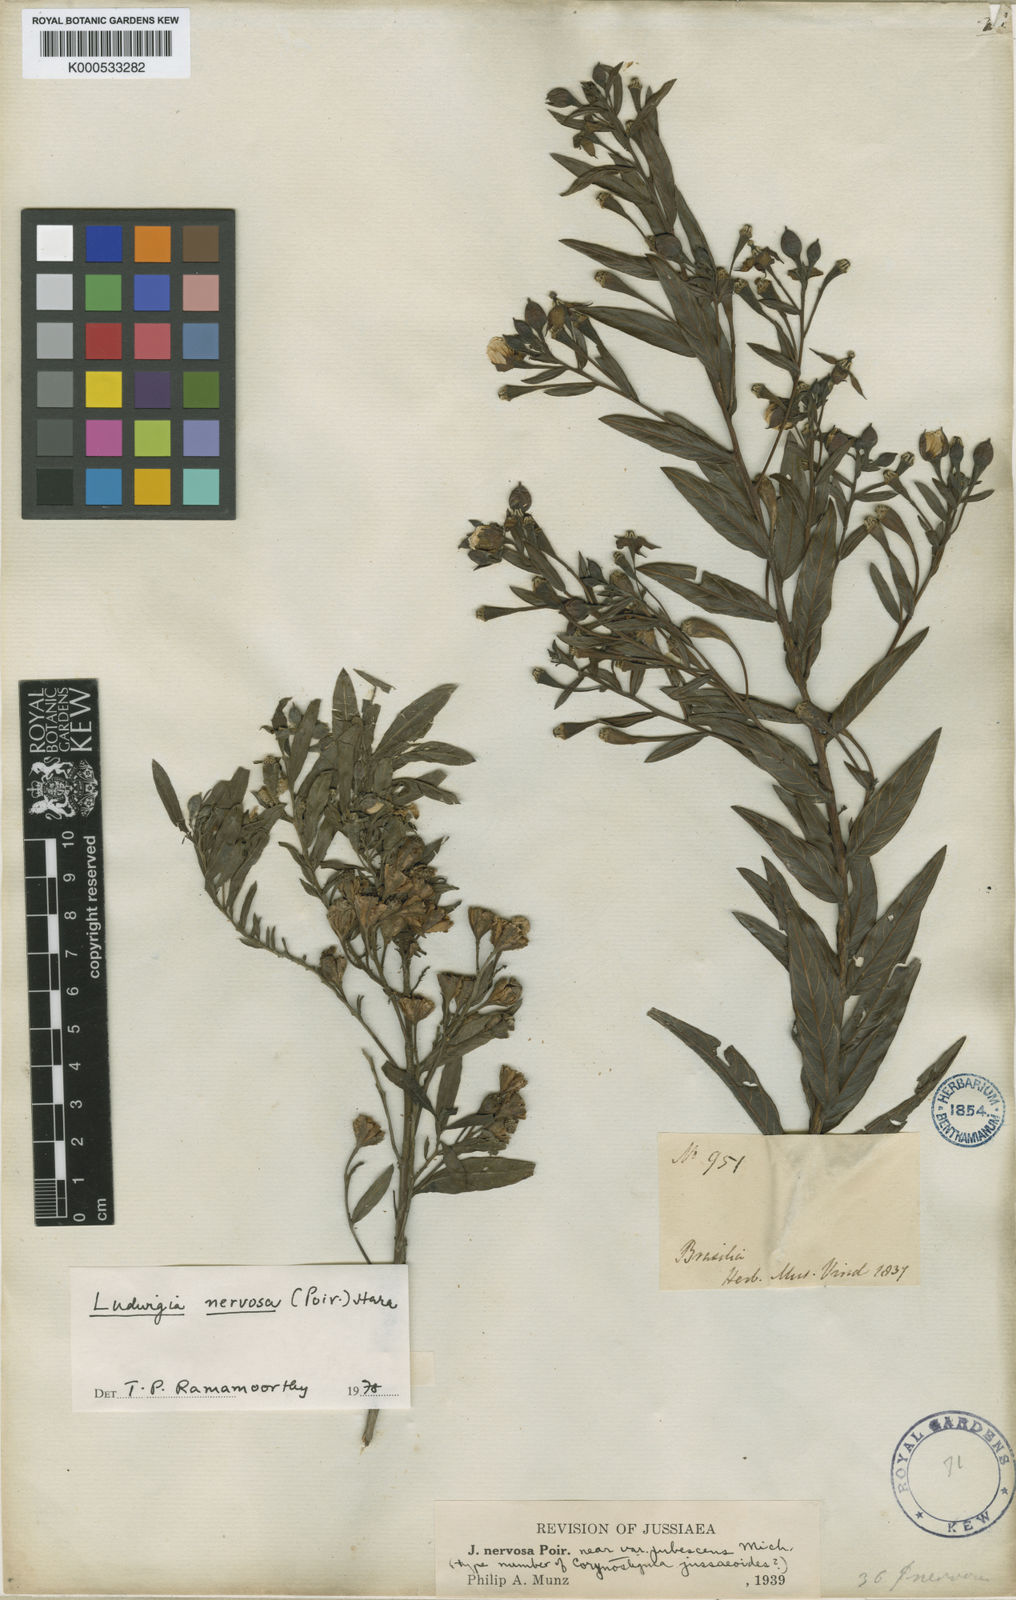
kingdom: Plantae
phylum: Tracheophyta
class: Magnoliopsida
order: Myrtales
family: Onagraceae
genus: Ludwigia
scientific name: Ludwigia nervosa
